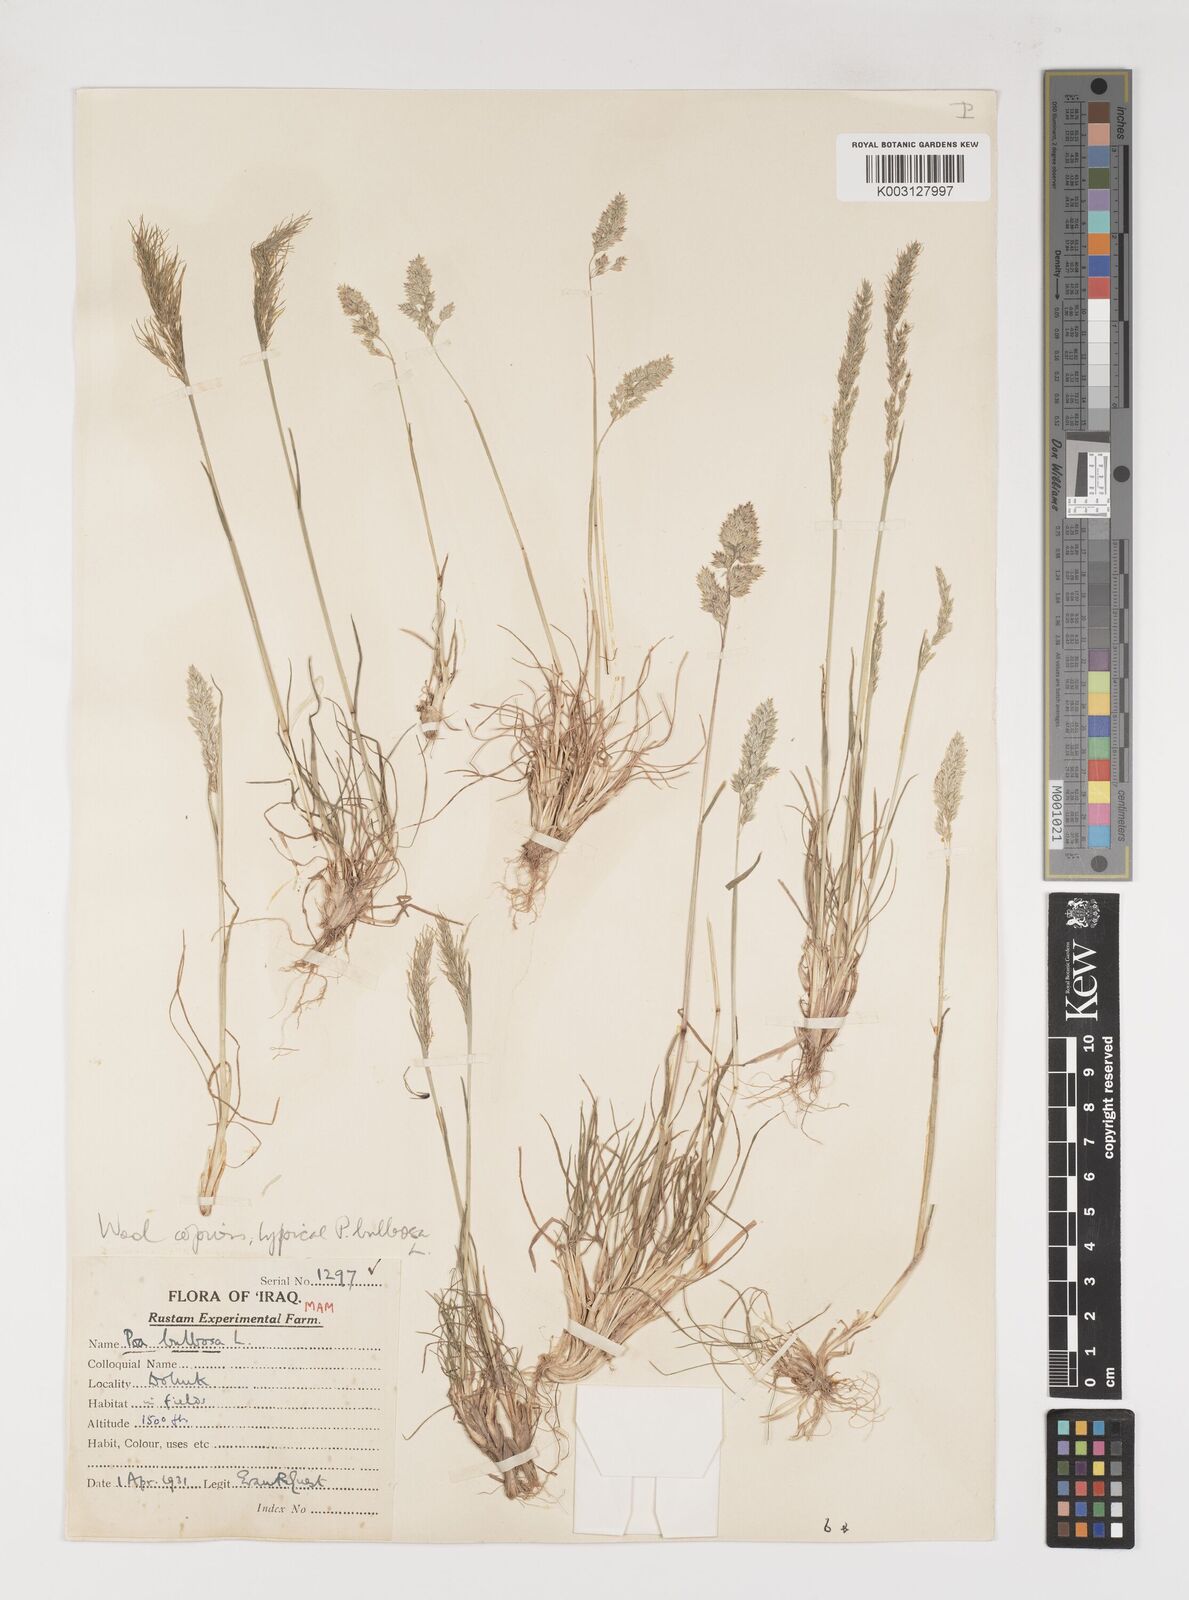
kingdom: Plantae
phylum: Tracheophyta
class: Liliopsida
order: Poales
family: Poaceae
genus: Poa
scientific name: Poa bulbosa
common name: Bulbous bluegrass
